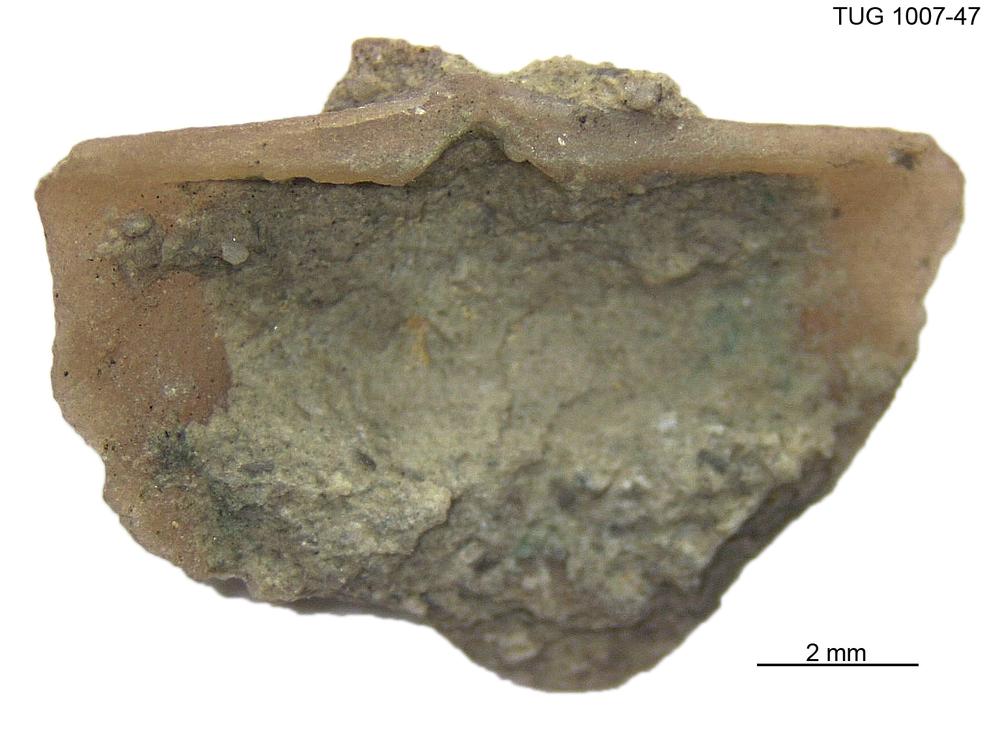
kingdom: Animalia
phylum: Brachiopoda
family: Oldhaminidae
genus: Eoplectodonta
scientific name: Eoplectodonta
